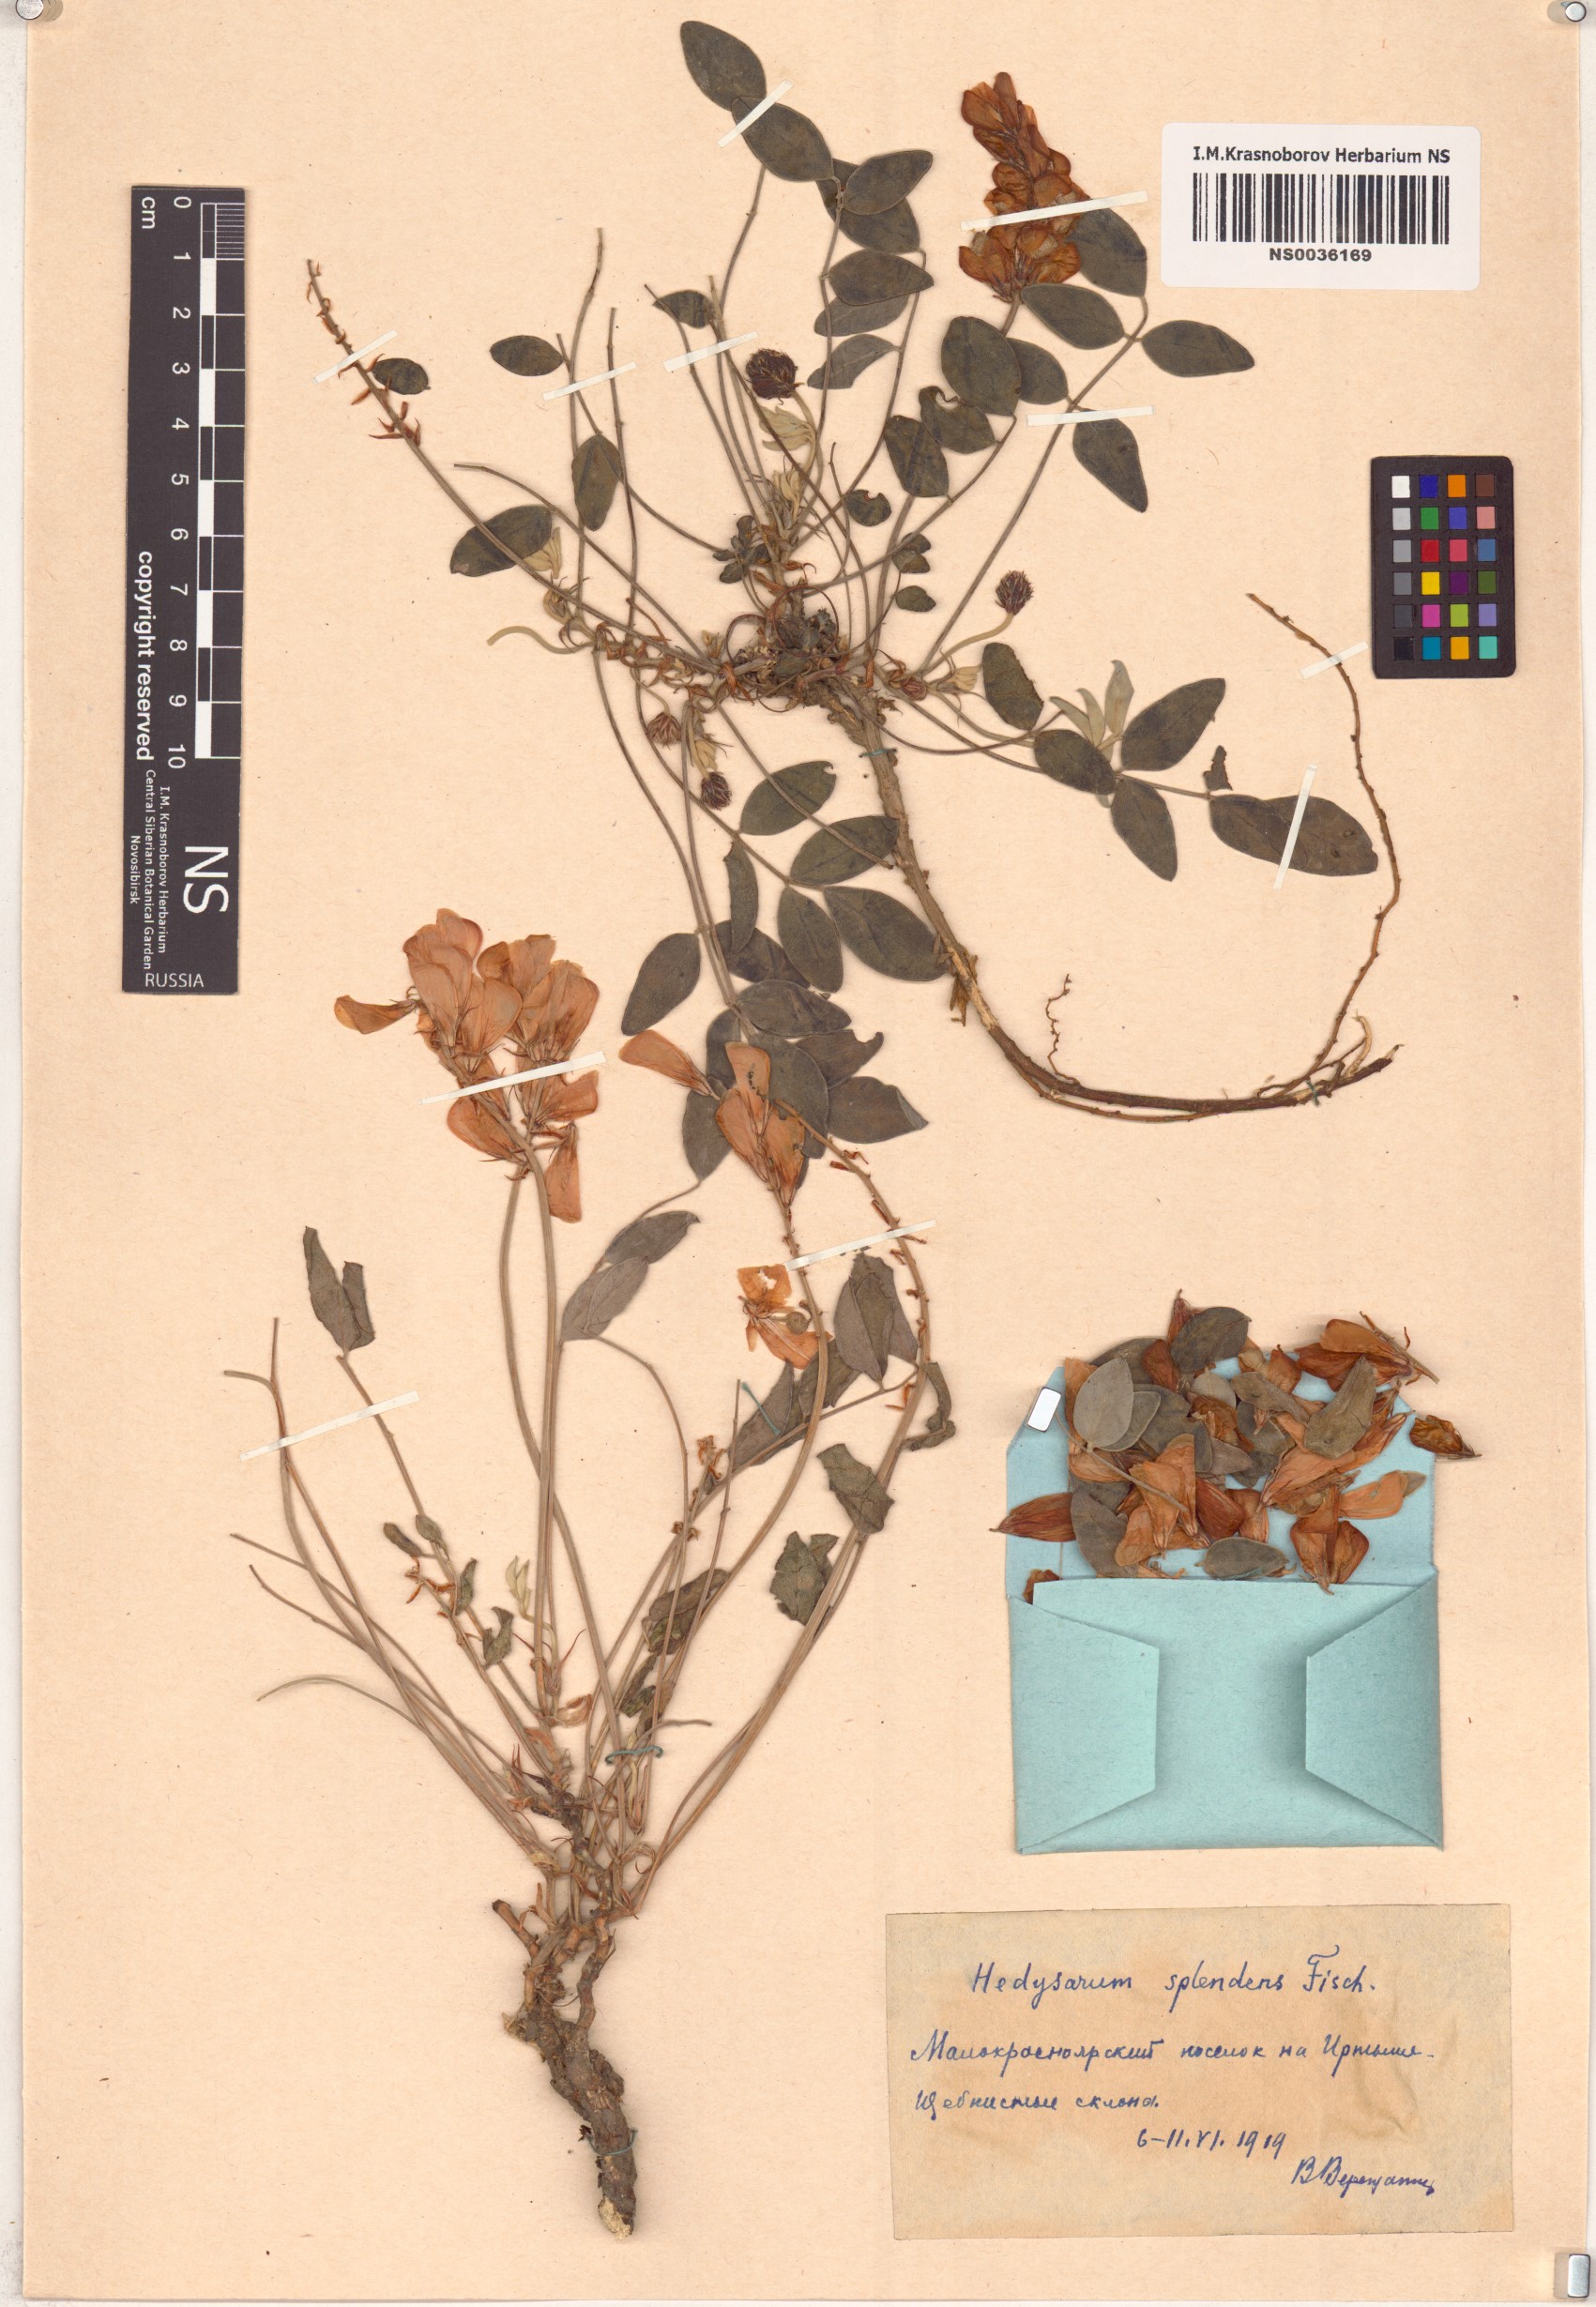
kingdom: Plantae
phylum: Tracheophyta
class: Magnoliopsida
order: Fabales
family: Fabaceae
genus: Hedysarum
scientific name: Hedysarum splendens
